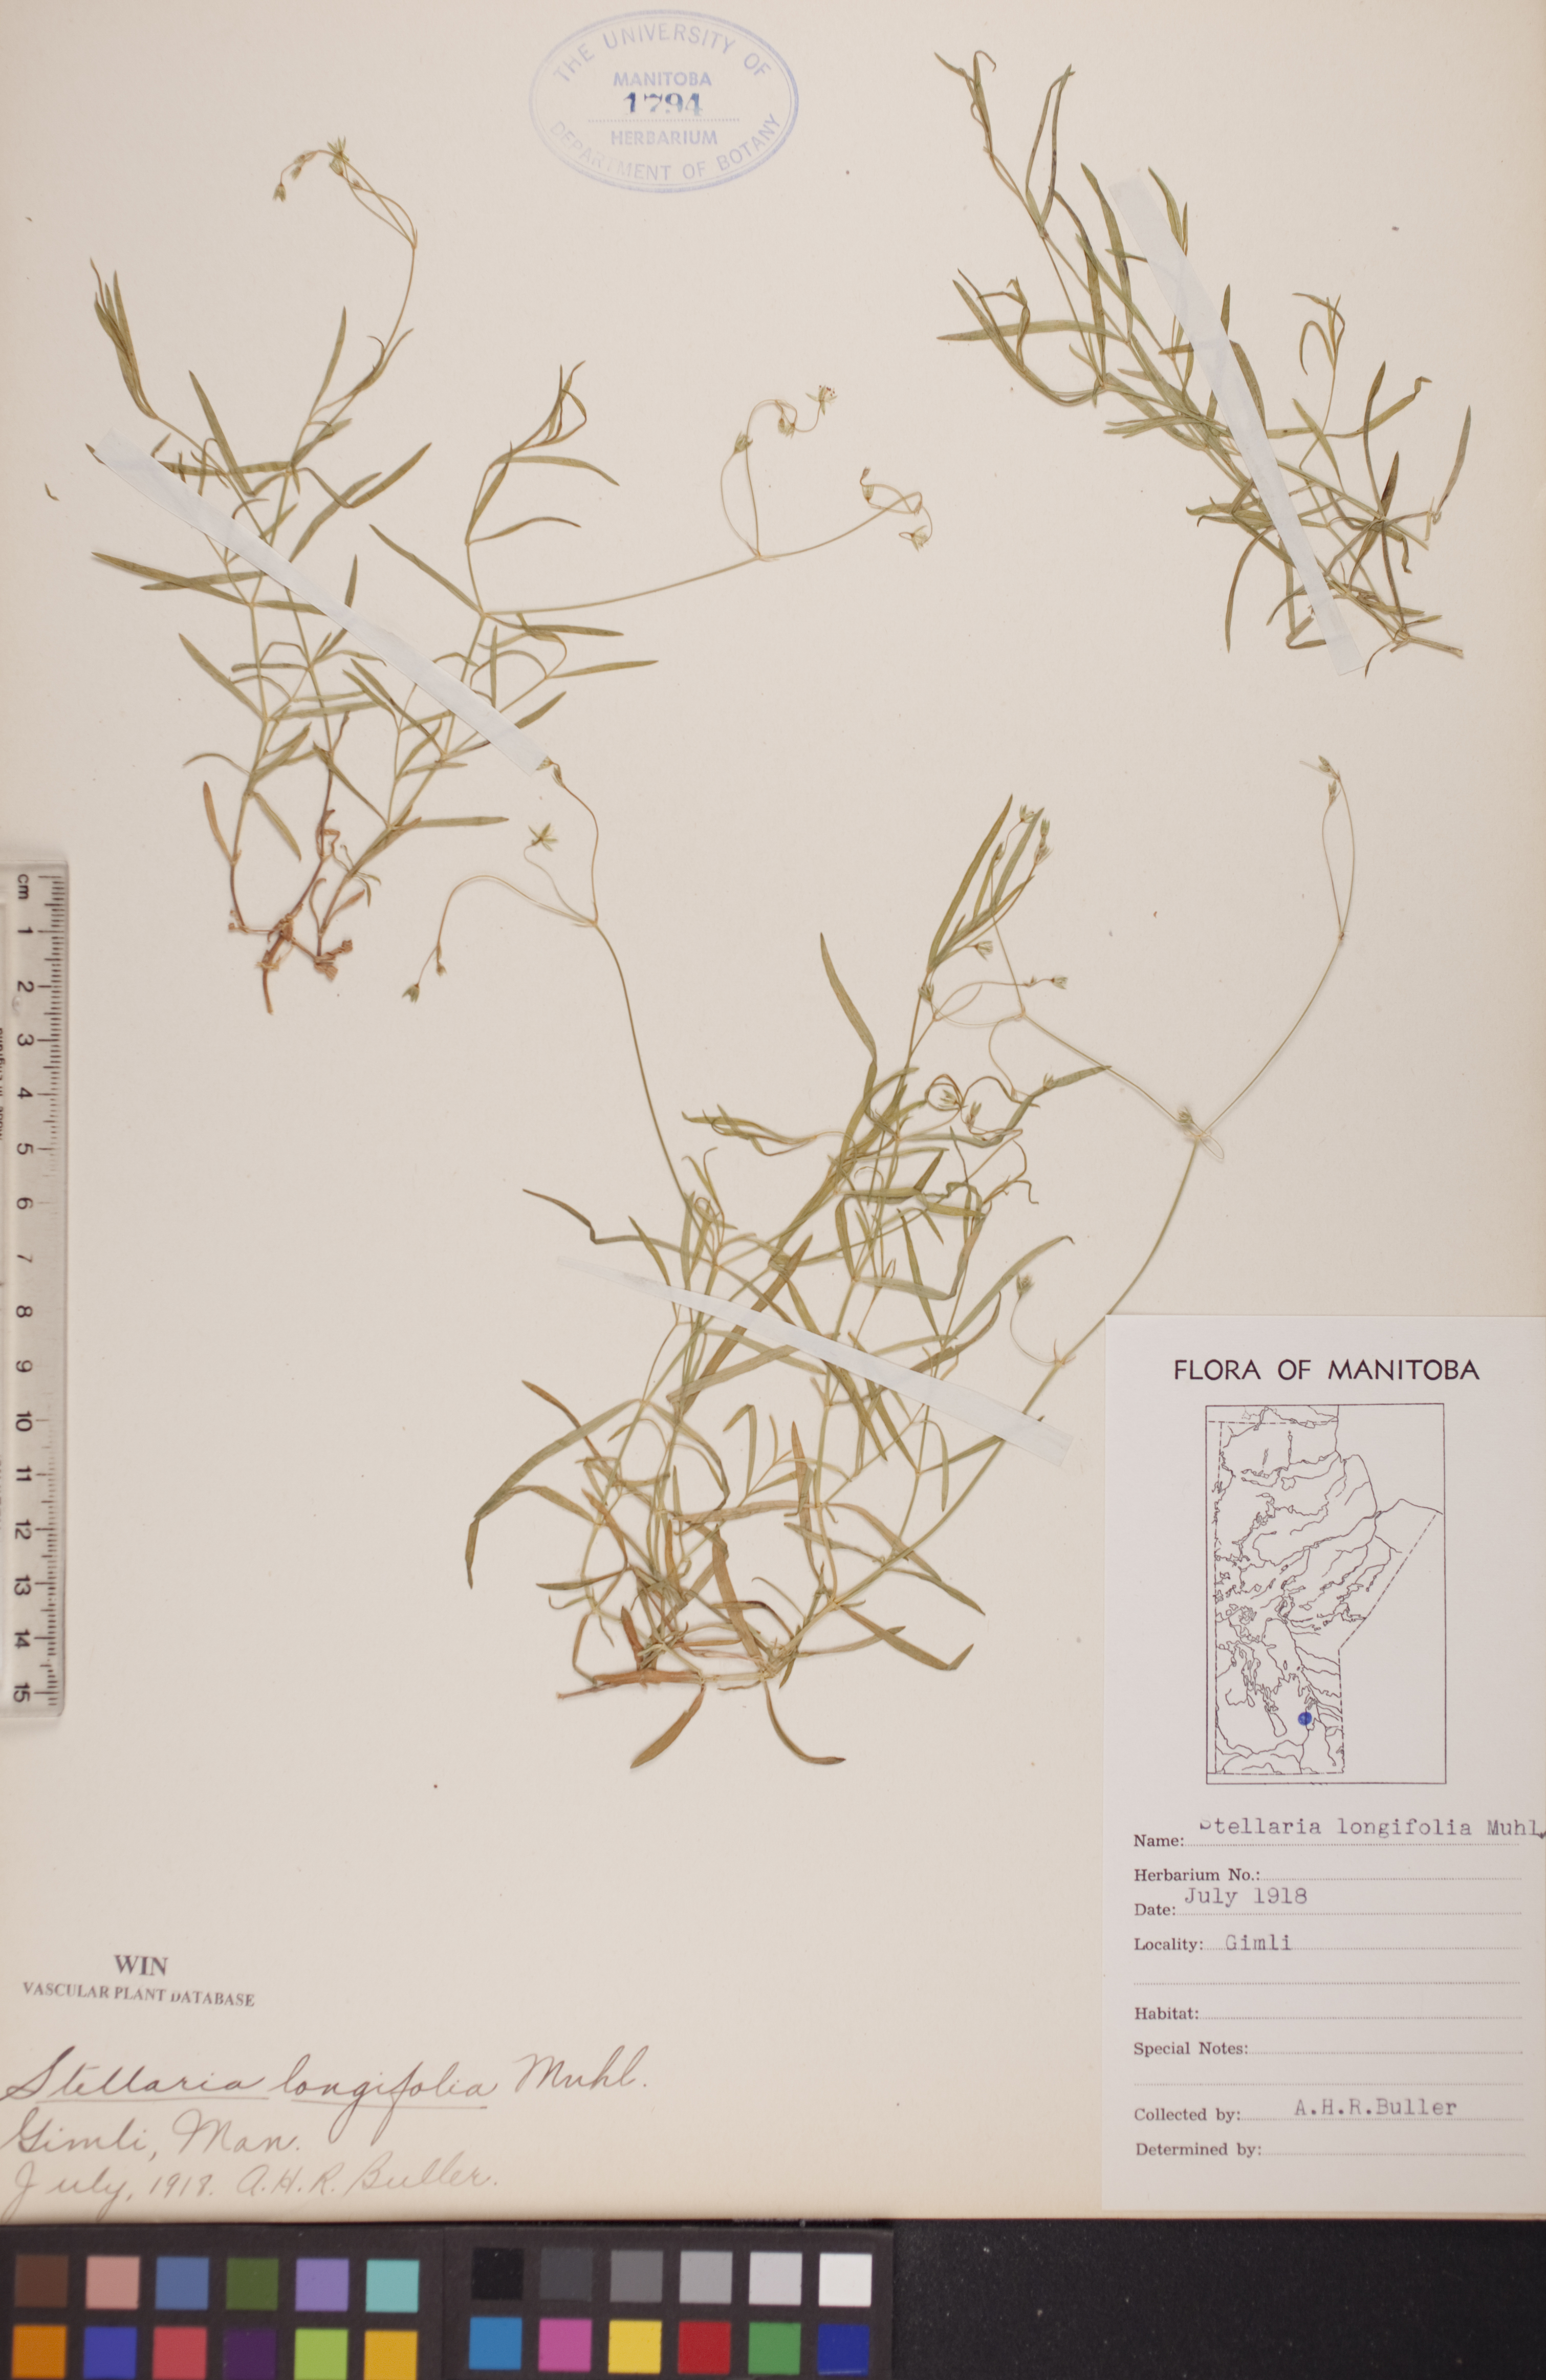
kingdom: Plantae
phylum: Tracheophyta
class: Magnoliopsida
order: Caryophyllales
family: Caryophyllaceae
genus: Stellaria
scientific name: Stellaria longifolia
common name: Long-leaved chickweed
